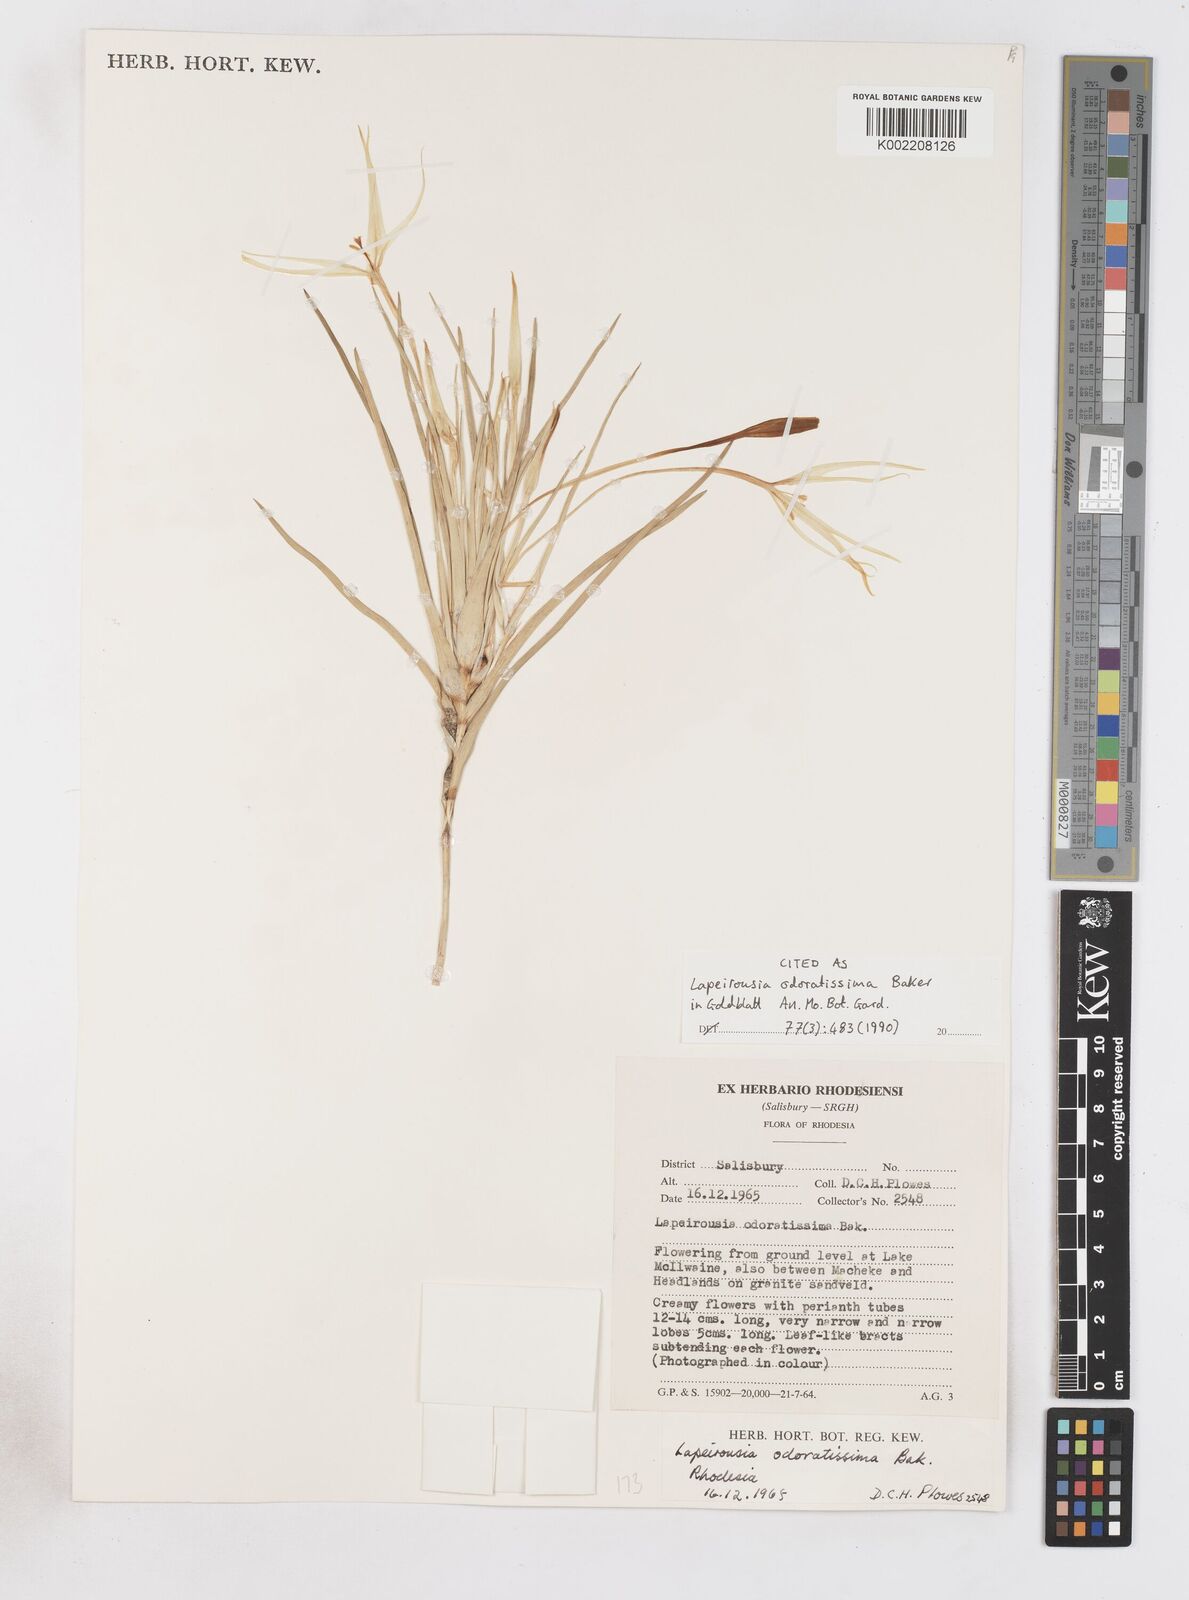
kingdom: Plantae
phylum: Tracheophyta
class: Liliopsida
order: Asparagales
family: Iridaceae
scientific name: Iridaceae
